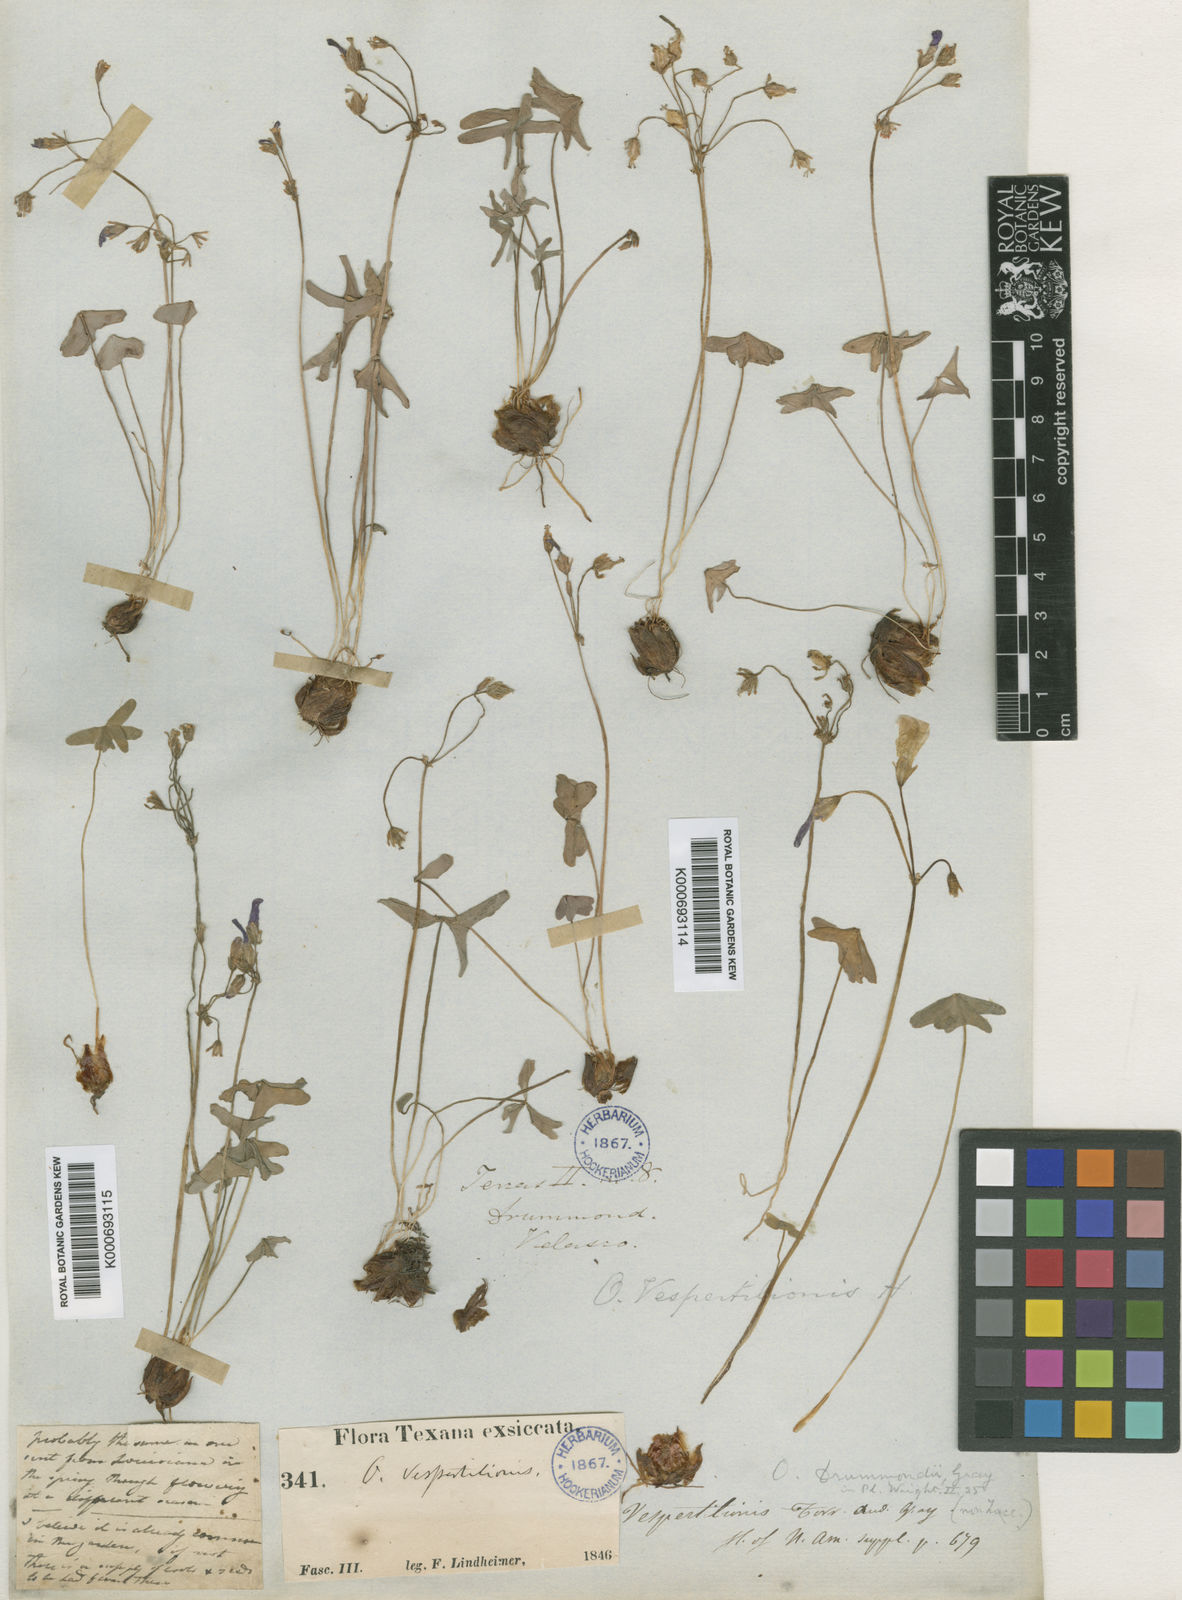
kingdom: Plantae
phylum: Tracheophyta
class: Magnoliopsida
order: Oxalidales
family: Oxalidaceae
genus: Oxalis
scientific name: Oxalis drummondii
